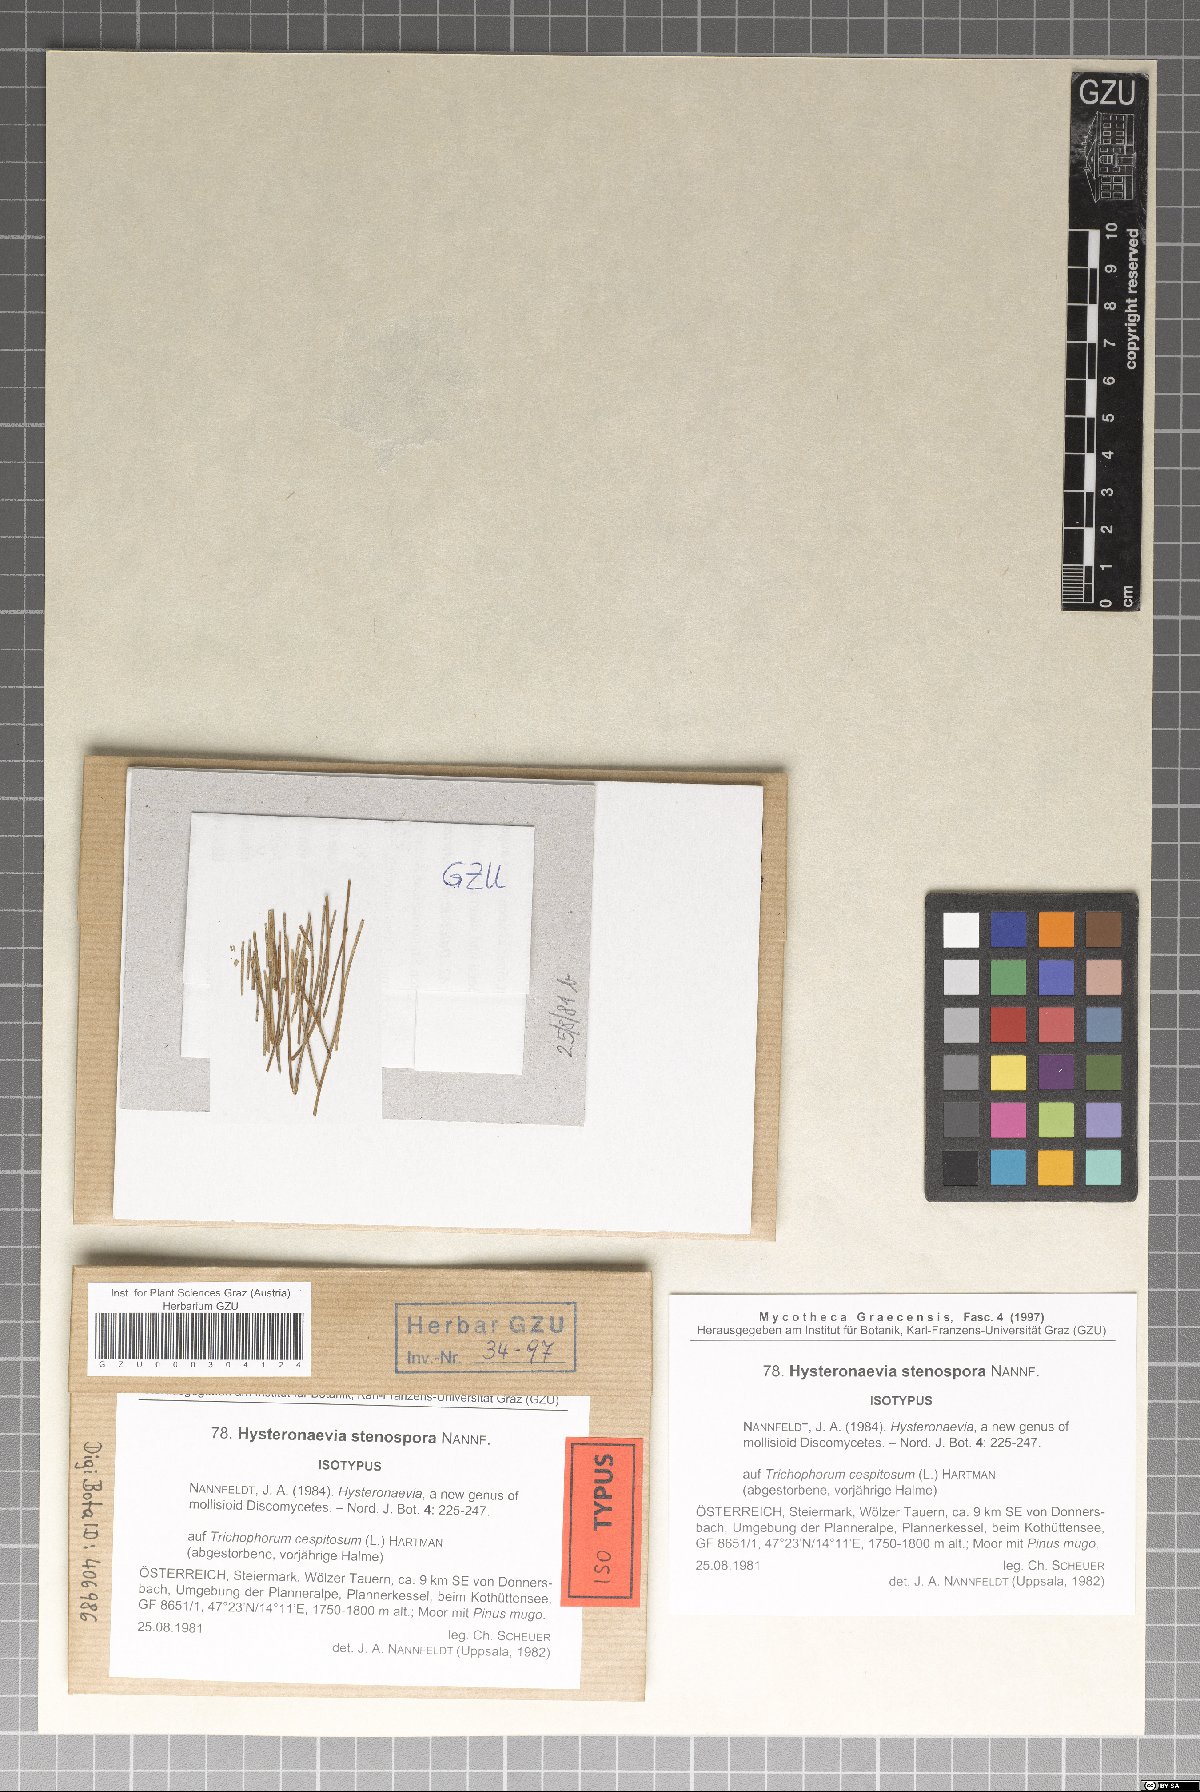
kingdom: Fungi
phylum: Ascomycota
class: Leotiomycetes
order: Helotiales
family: Dermateaceae
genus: Hysteronaevia
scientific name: Hysteronaevia stenospora
